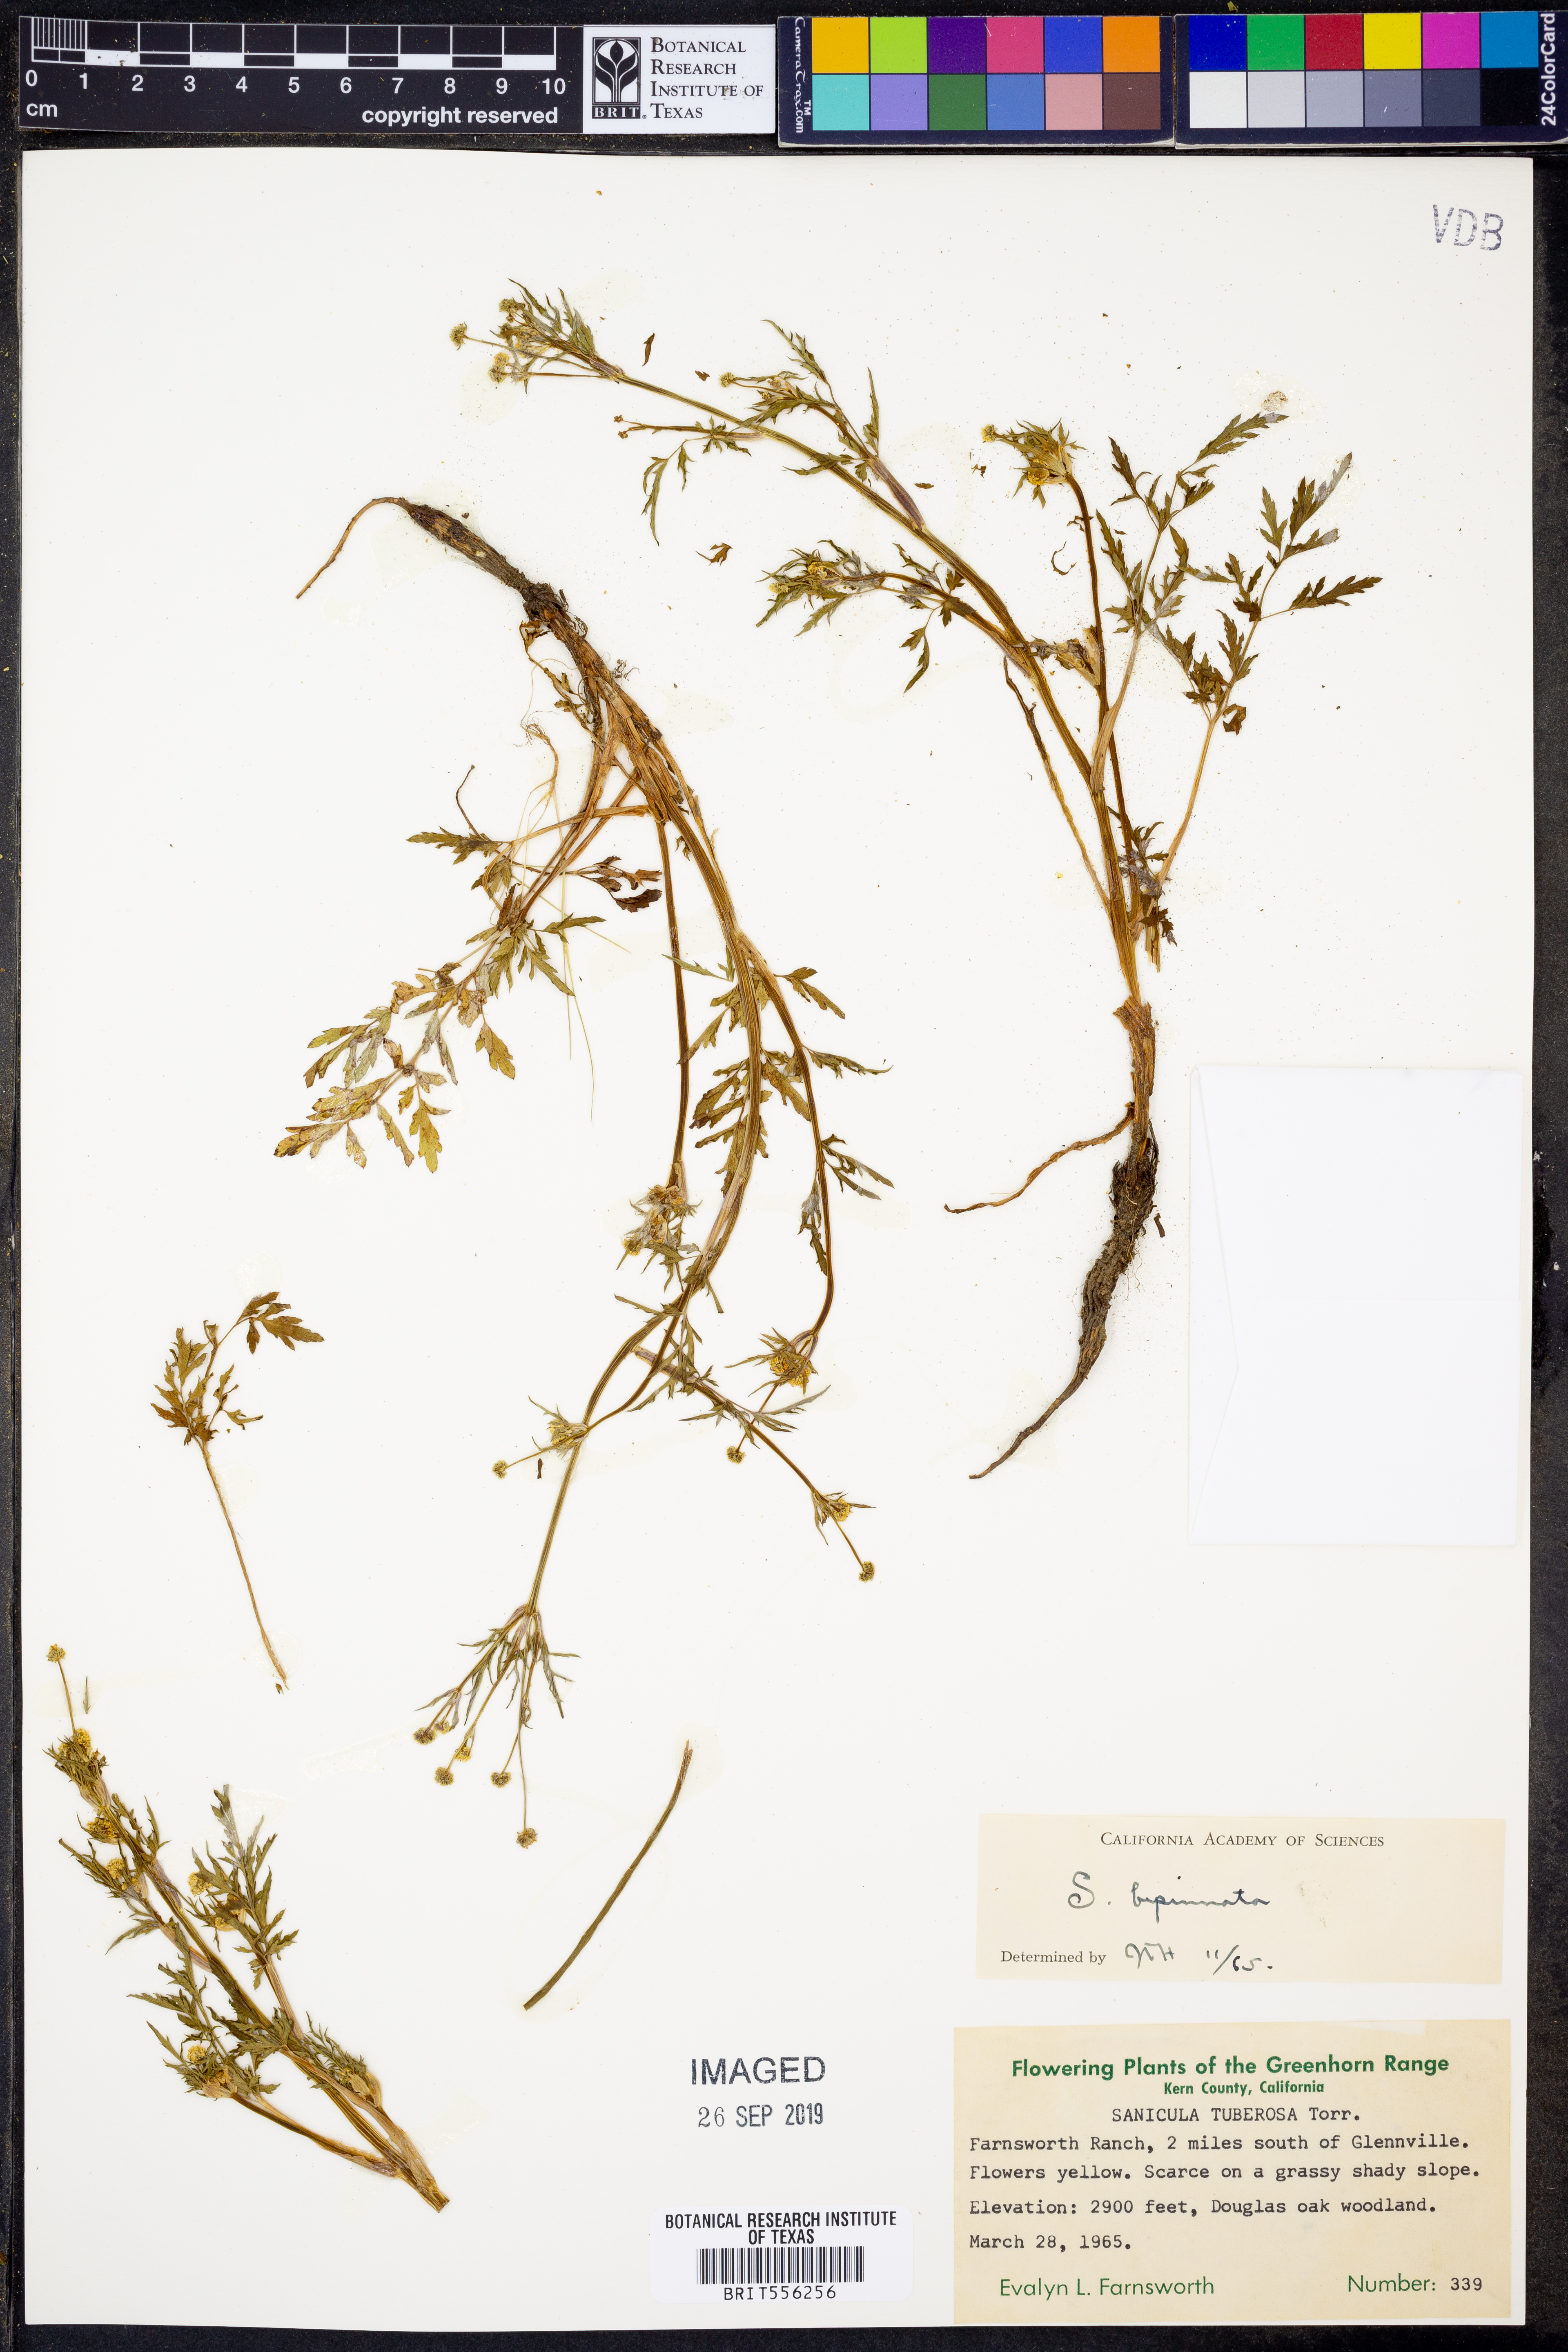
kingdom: Plantae
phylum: Tracheophyta
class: Magnoliopsida
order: Apiales
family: Apiaceae
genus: Sanicula
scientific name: Sanicula bipinnata
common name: Poison sanicle
